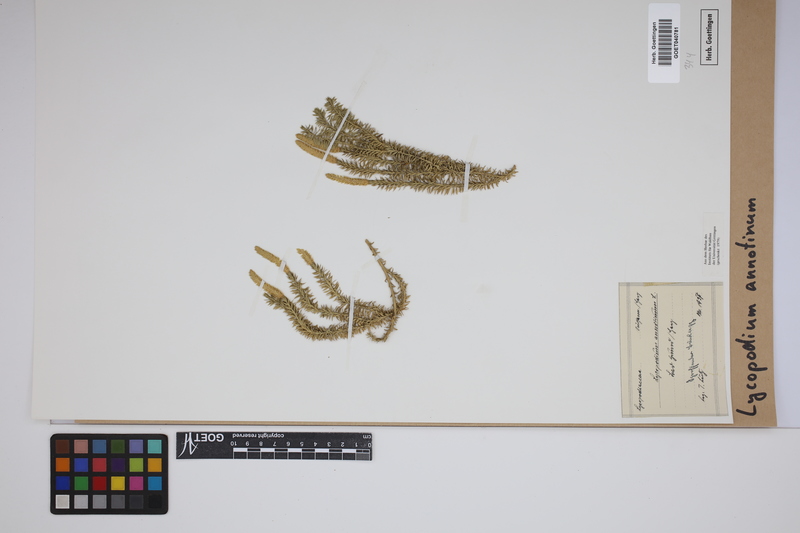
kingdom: Plantae
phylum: Tracheophyta
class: Lycopodiopsida
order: Lycopodiales
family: Lycopodiaceae
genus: Spinulum
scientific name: Spinulum annotinum
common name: Interrupted club-moss
